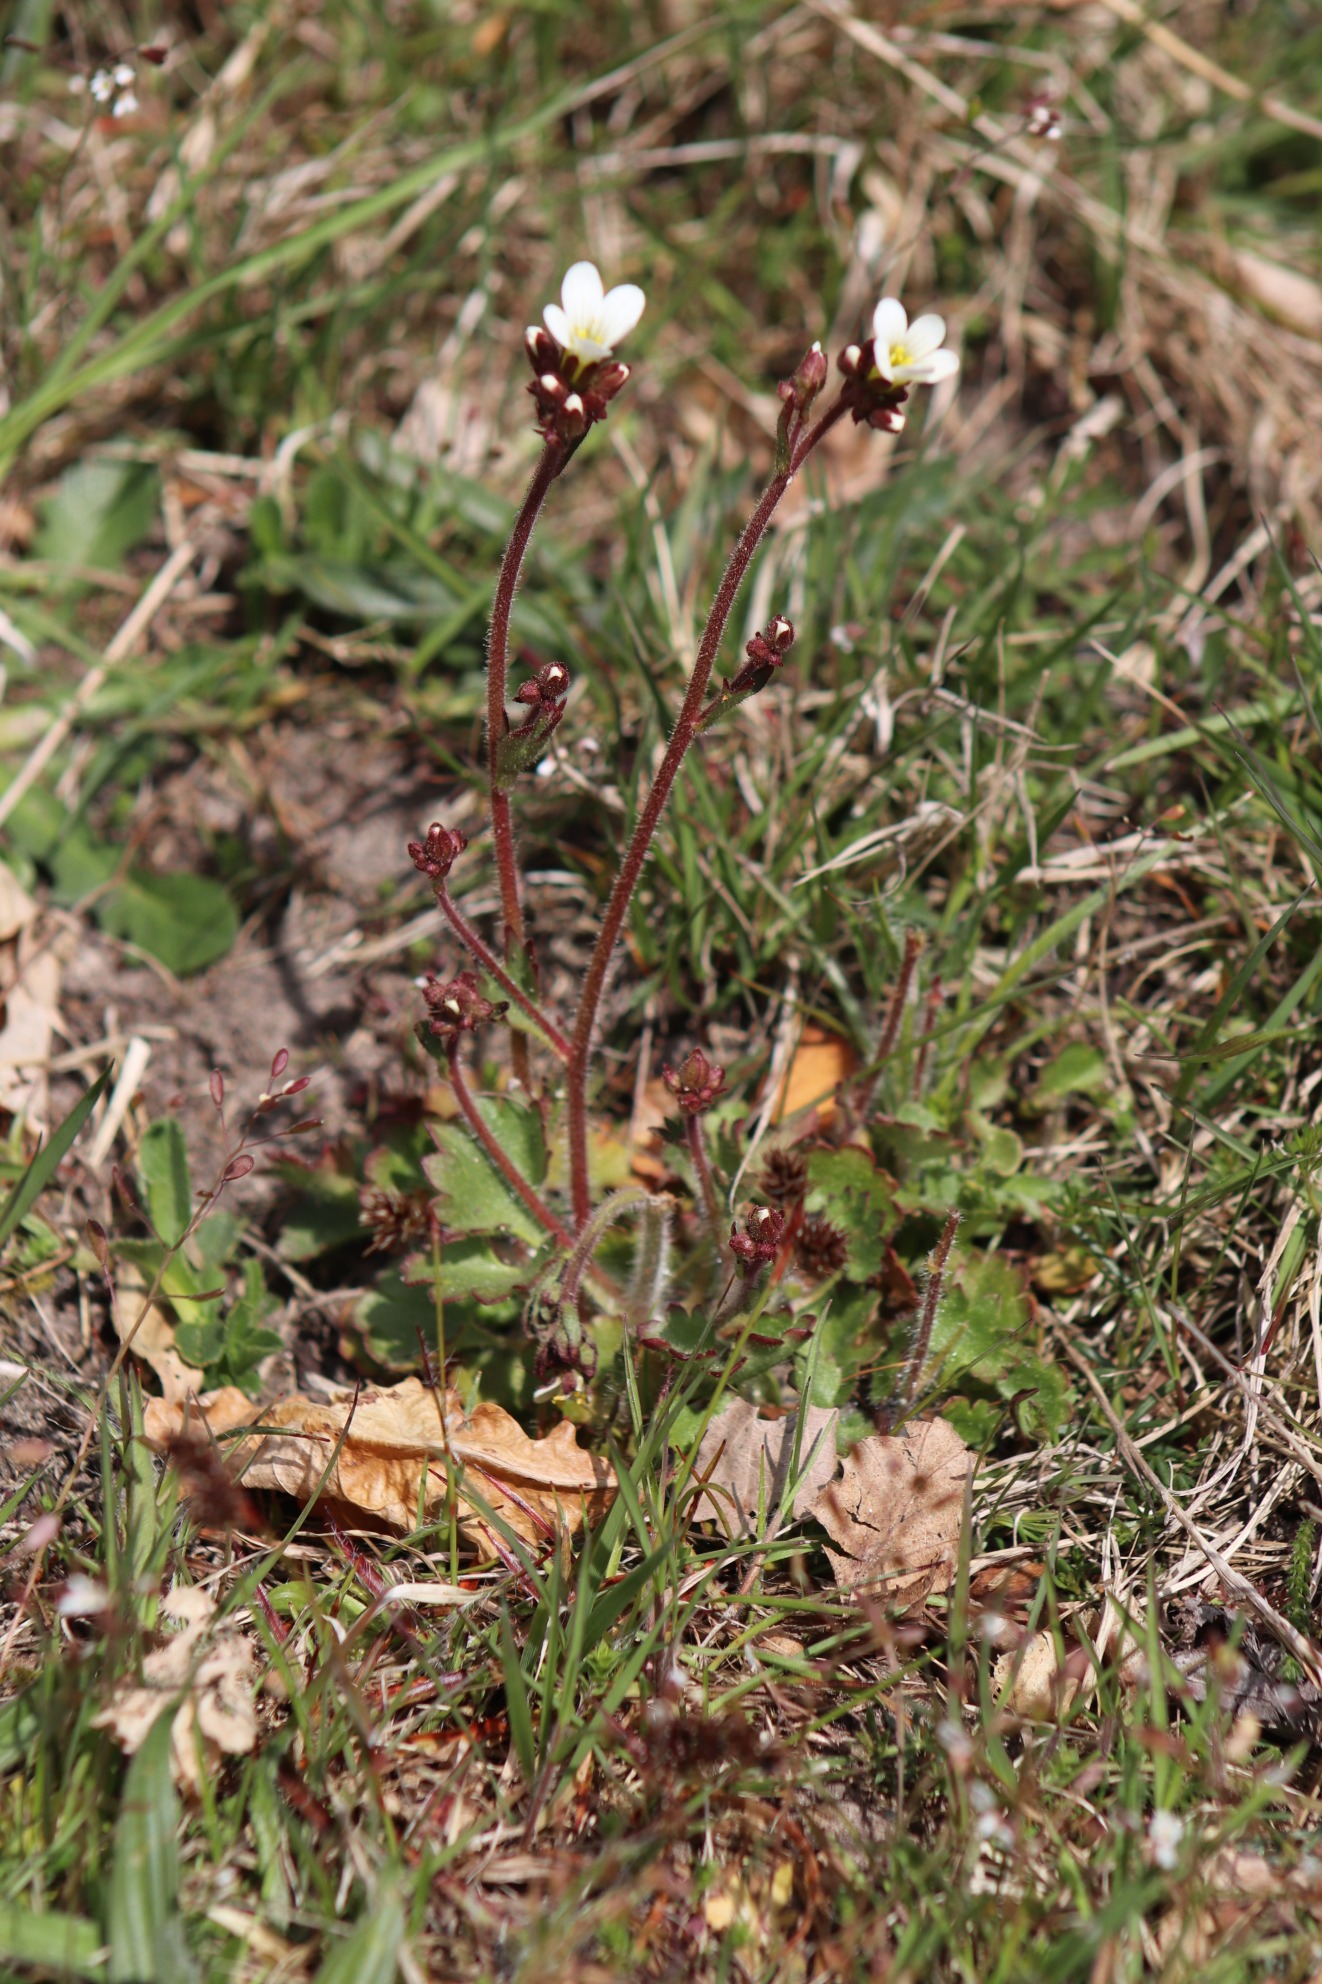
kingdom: Plantae
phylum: Tracheophyta
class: Magnoliopsida
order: Saxifragales
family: Saxifragaceae
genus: Saxifraga
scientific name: Saxifraga granulata
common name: Kornet stenbræk
